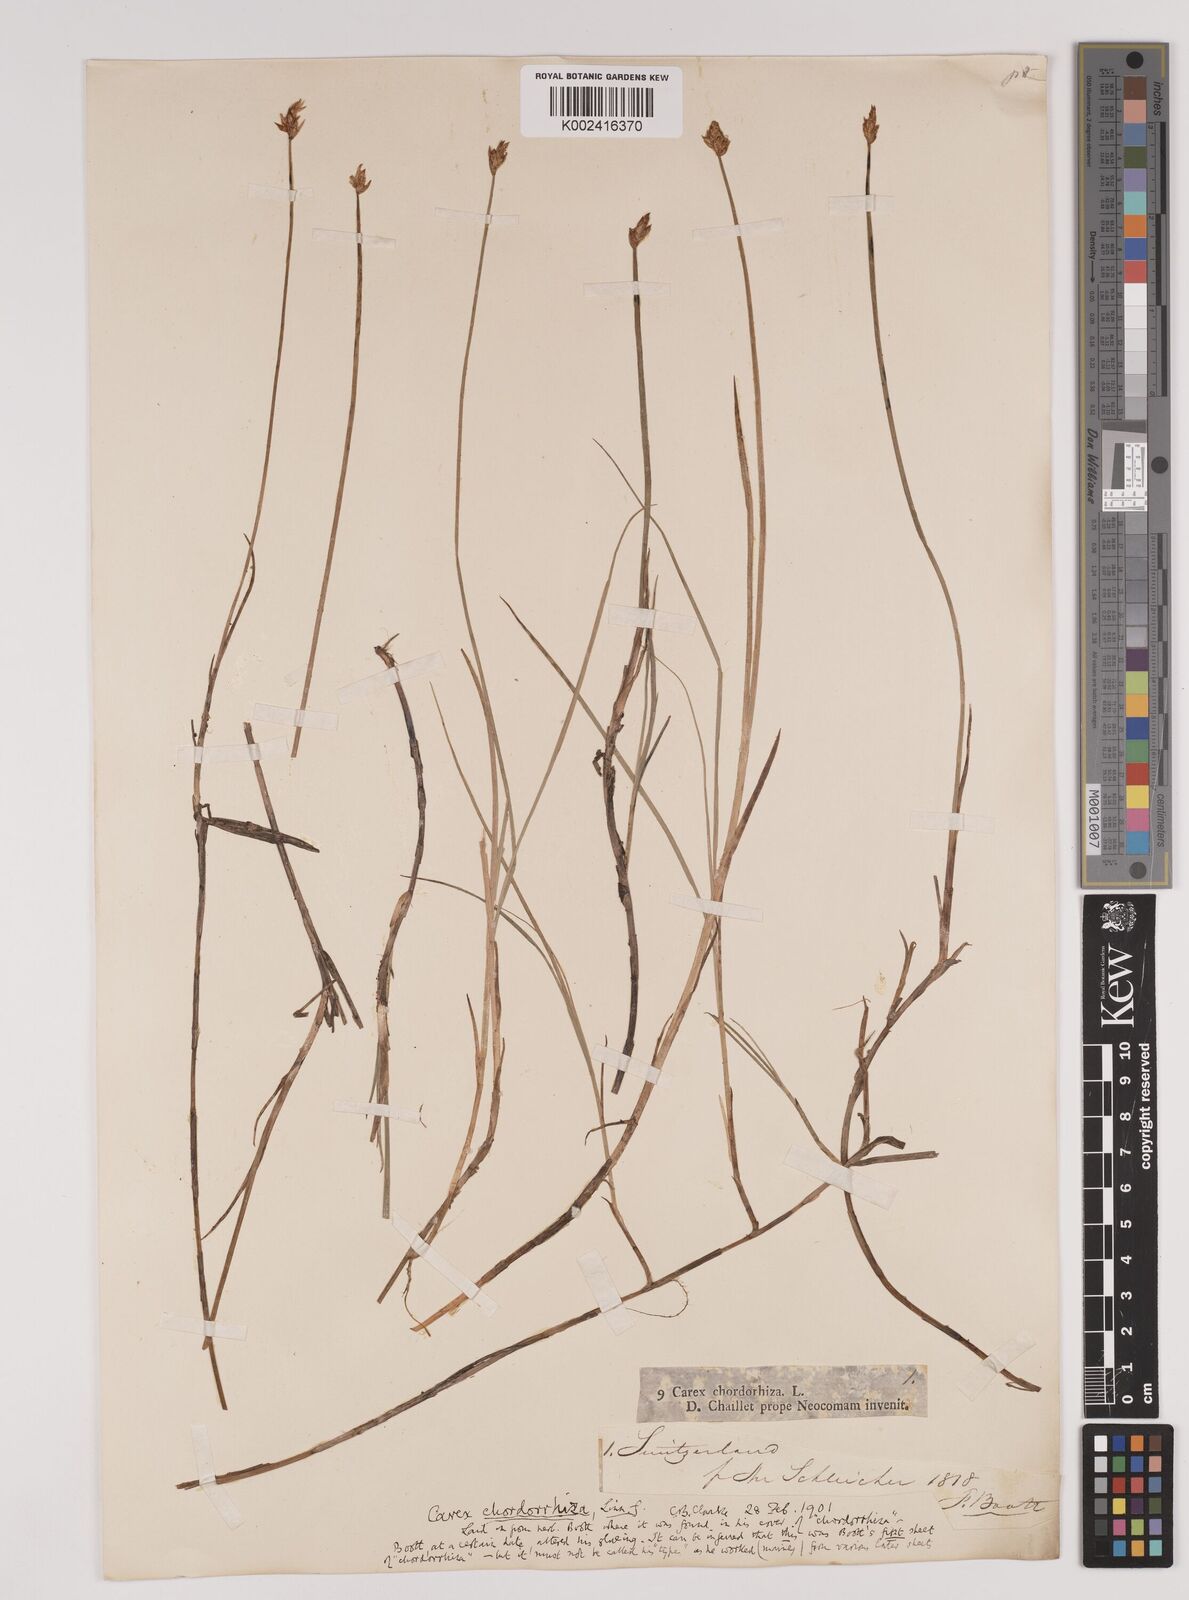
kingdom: Plantae
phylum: Tracheophyta
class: Liliopsida
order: Poales
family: Cyperaceae
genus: Carex
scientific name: Carex chordorrhiza
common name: String sedge
